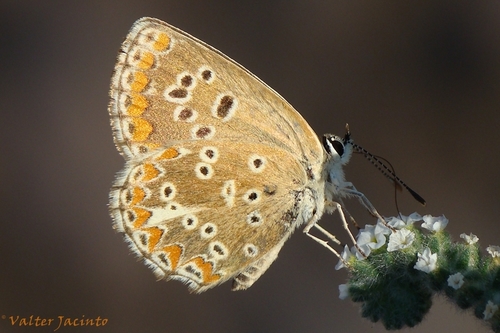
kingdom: Animalia
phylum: Arthropoda
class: Insecta
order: Lepidoptera
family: Lycaenidae
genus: Aricia
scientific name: Aricia cramera
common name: Eschscholtz´s brown  argus
